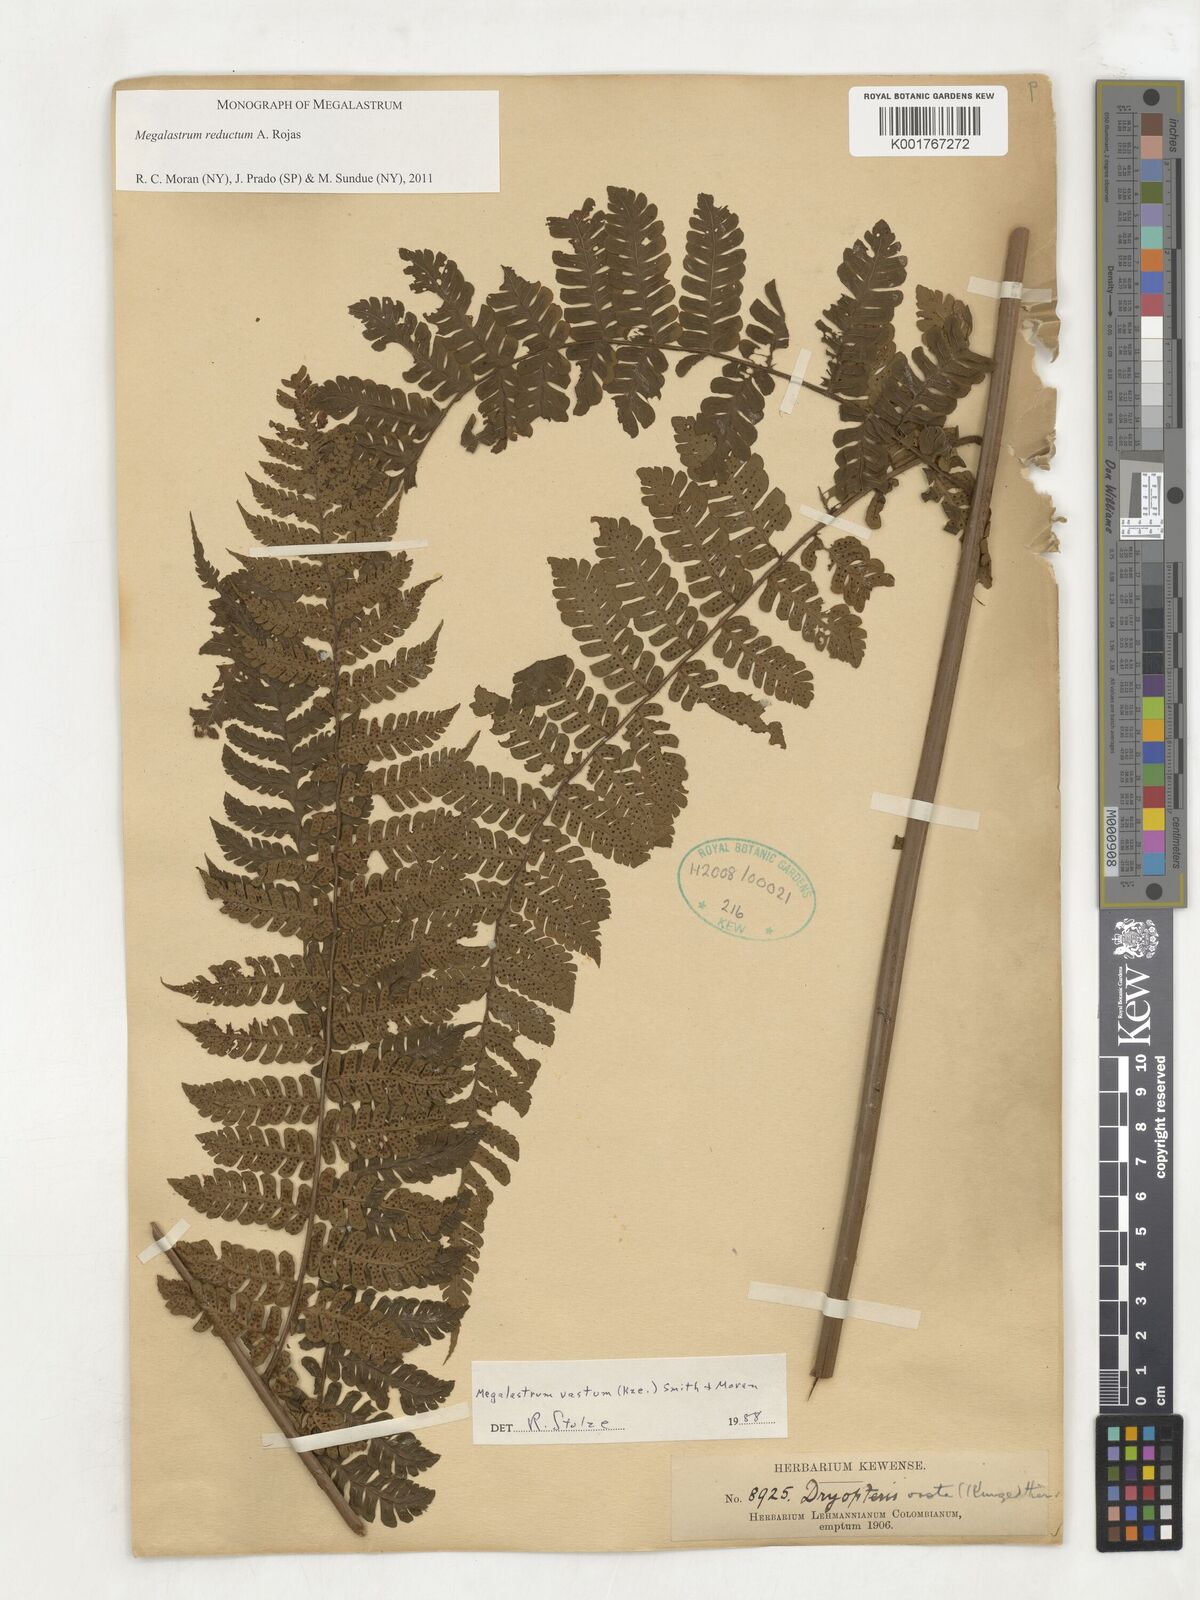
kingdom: Plantae
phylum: Tracheophyta
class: Polypodiopsida
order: Polypodiales
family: Dryopteridaceae
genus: Megalastrum
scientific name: Megalastrum reductum
